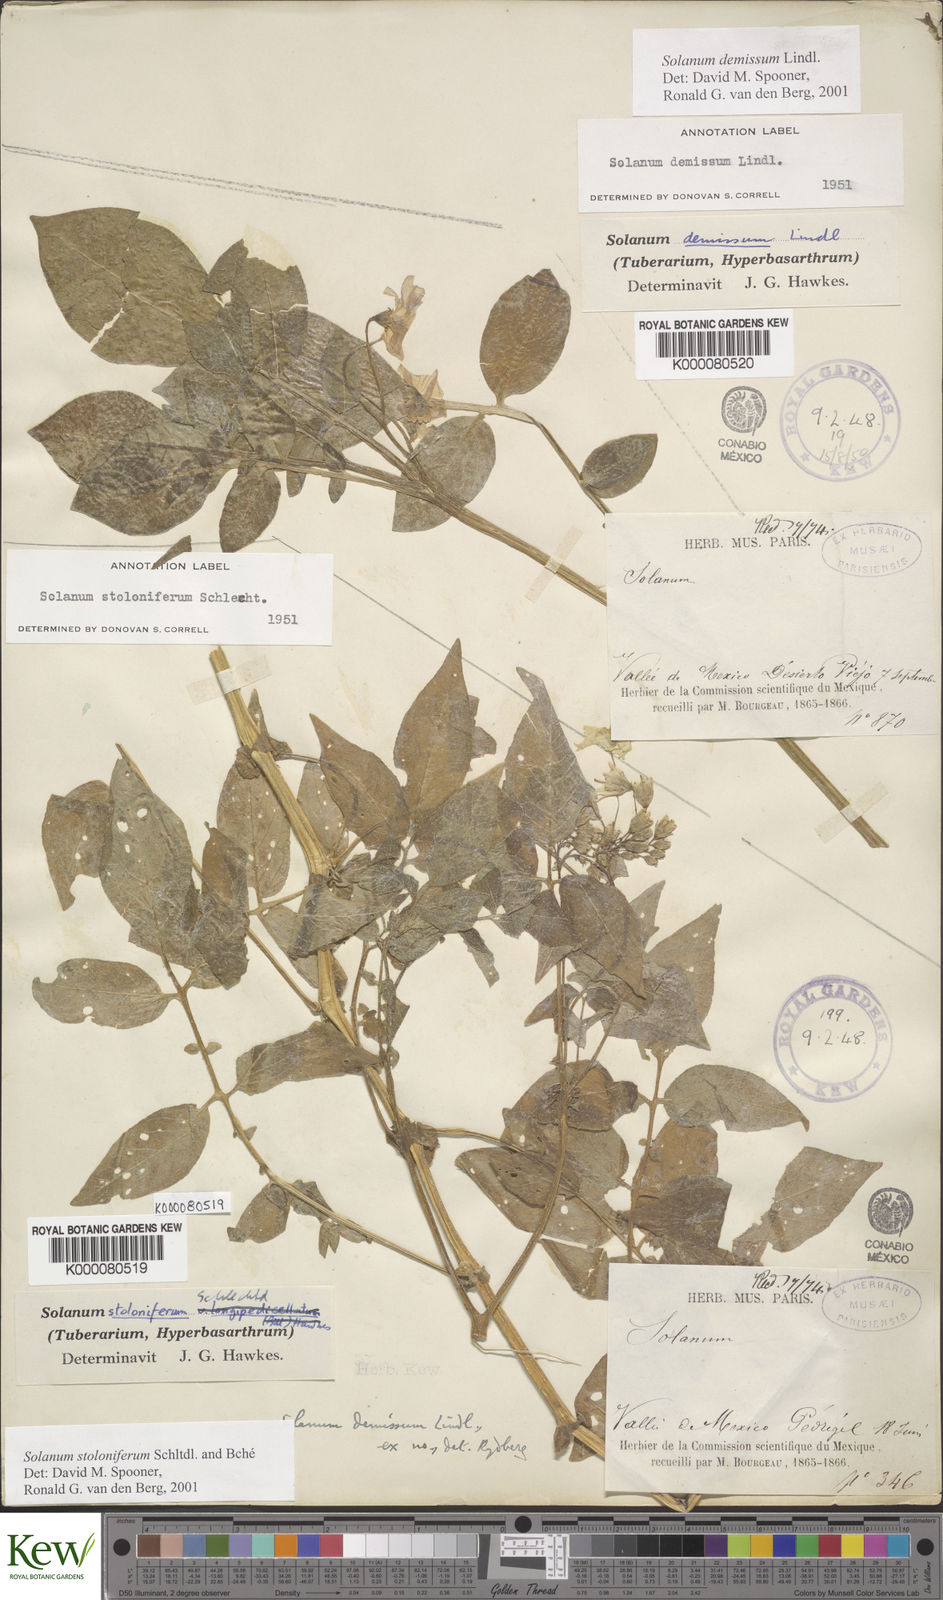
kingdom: Plantae
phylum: Tracheophyta
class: Magnoliopsida
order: Solanales
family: Solanaceae
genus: Solanum
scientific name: Solanum demissum
